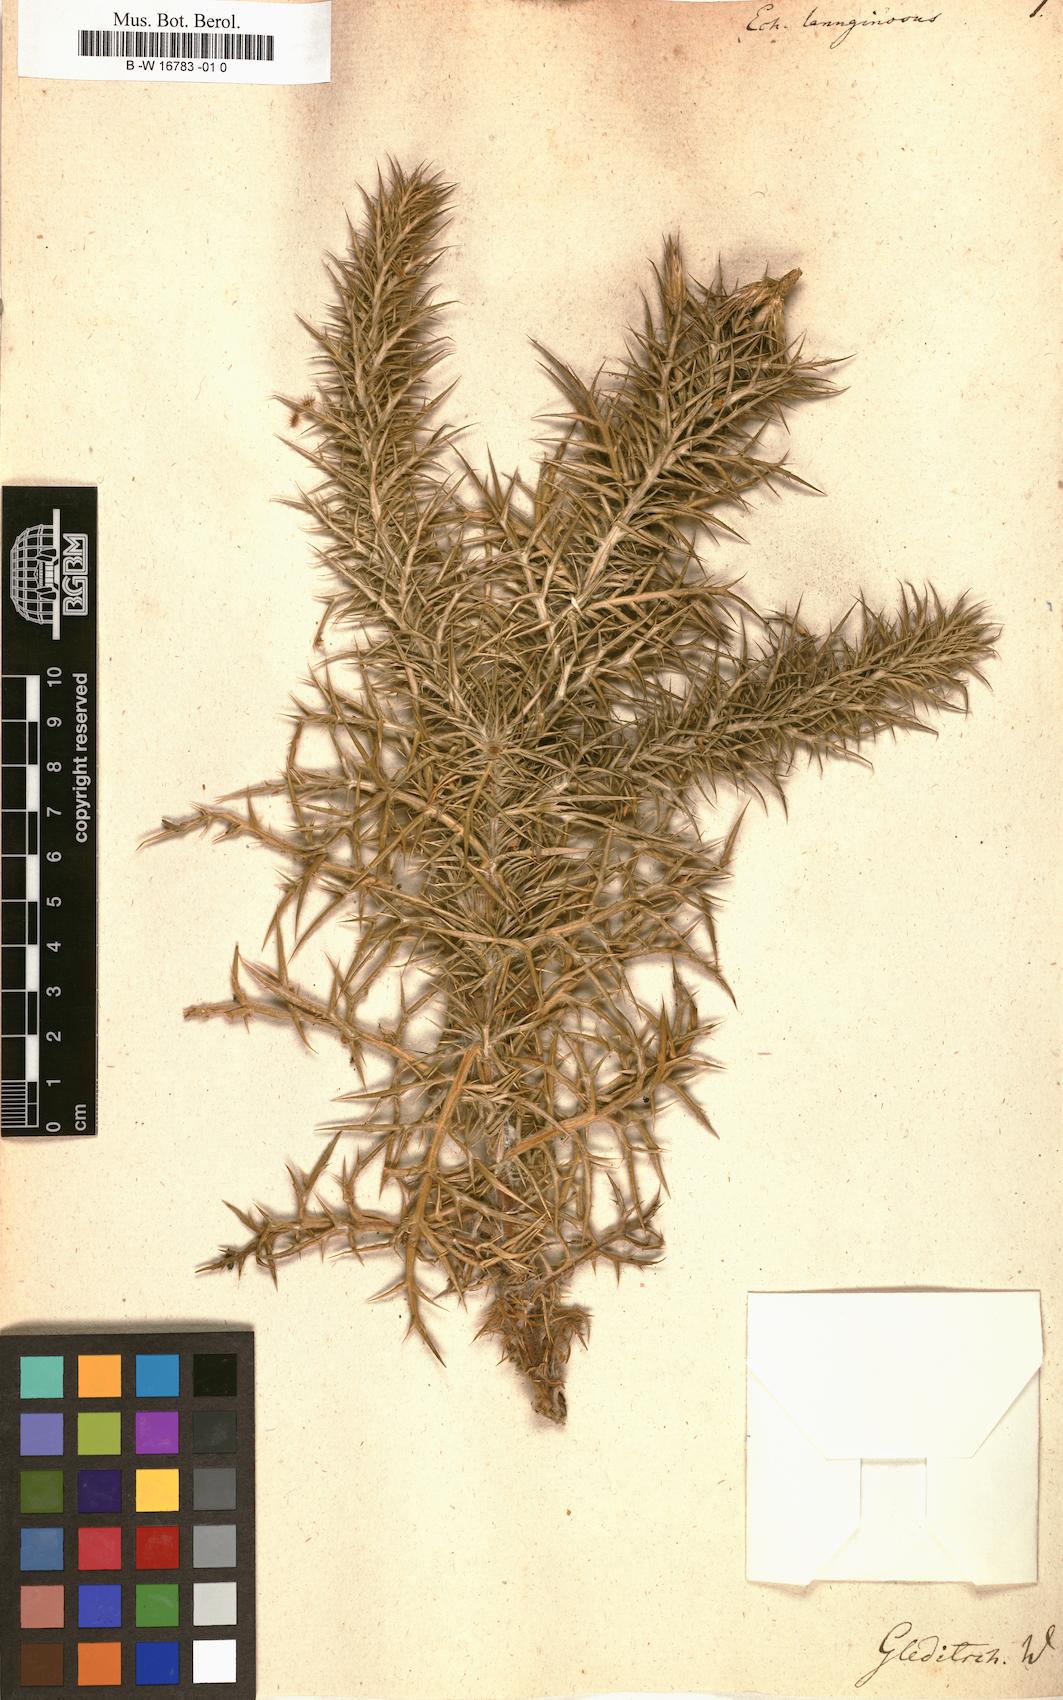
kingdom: Plantae
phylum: Tracheophyta
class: Magnoliopsida
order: Asterales
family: Asteraceae
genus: Echinops
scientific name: Echinops lanuginosus
